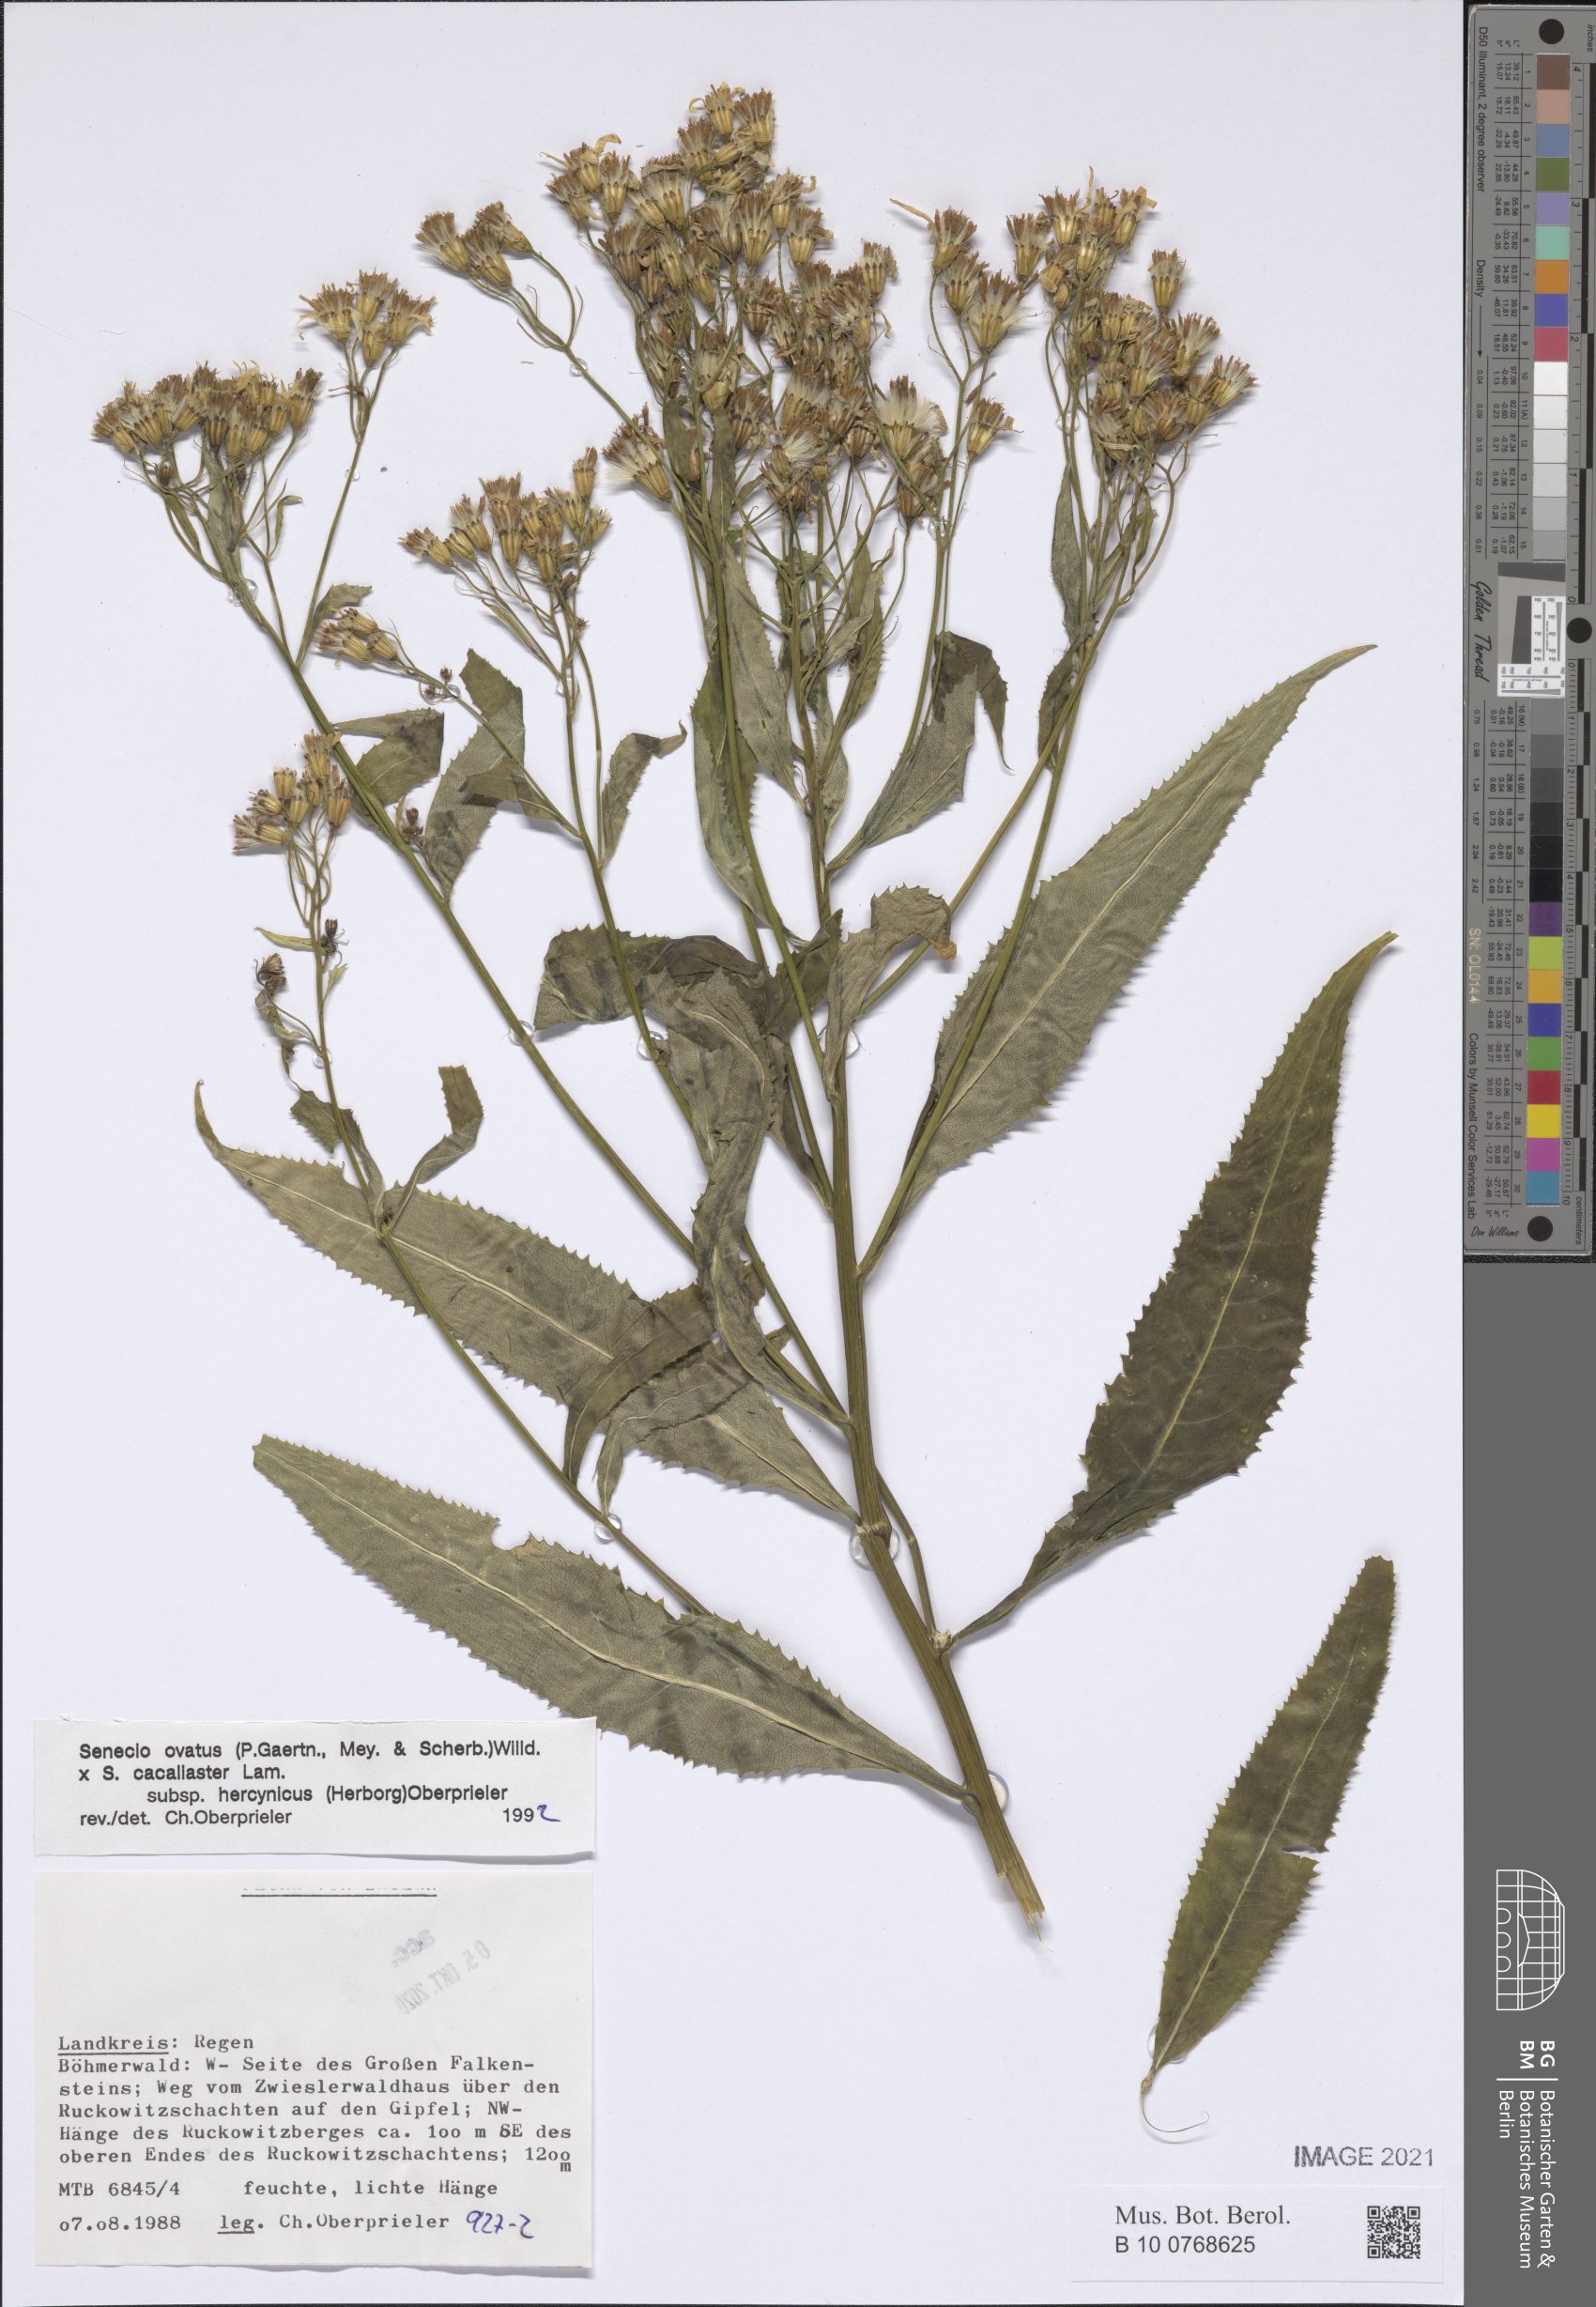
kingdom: Plantae
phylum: Tracheophyta
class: Magnoliopsida
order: Asterales
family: Asteraceae
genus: Senecio
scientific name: Senecio ovatus
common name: Wood ragwort
